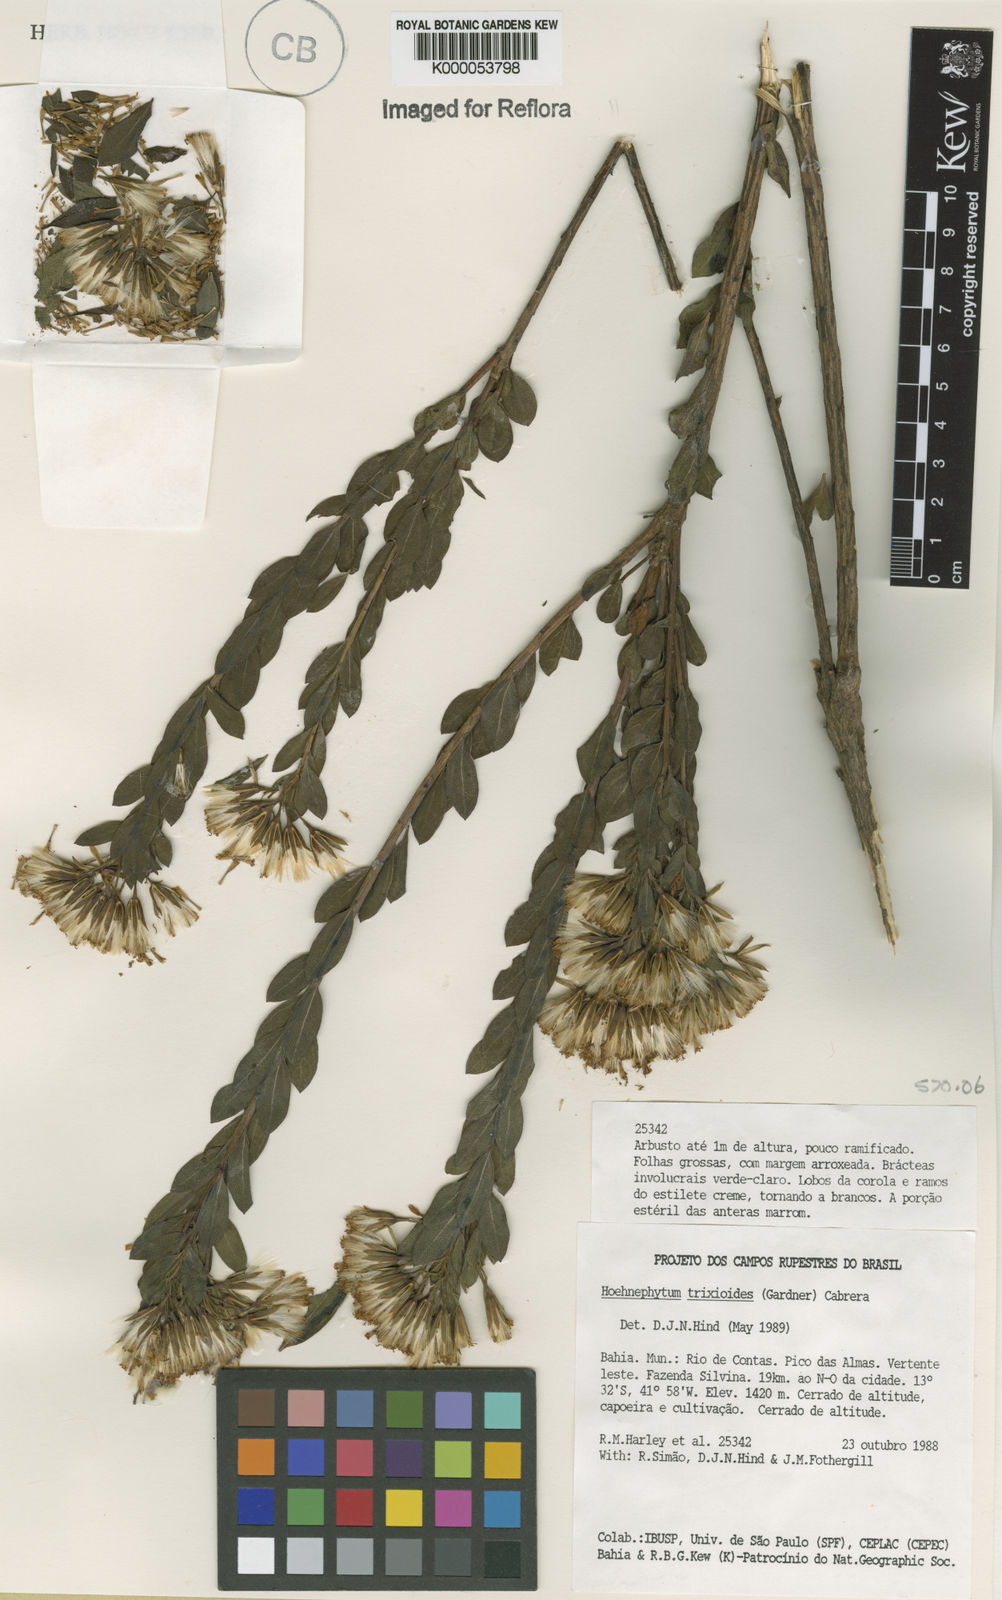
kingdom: Plantae
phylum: Tracheophyta
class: Magnoliopsida
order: Asterales
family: Asteraceae
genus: Hoehnephytum
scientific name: Hoehnephytum trixoides
